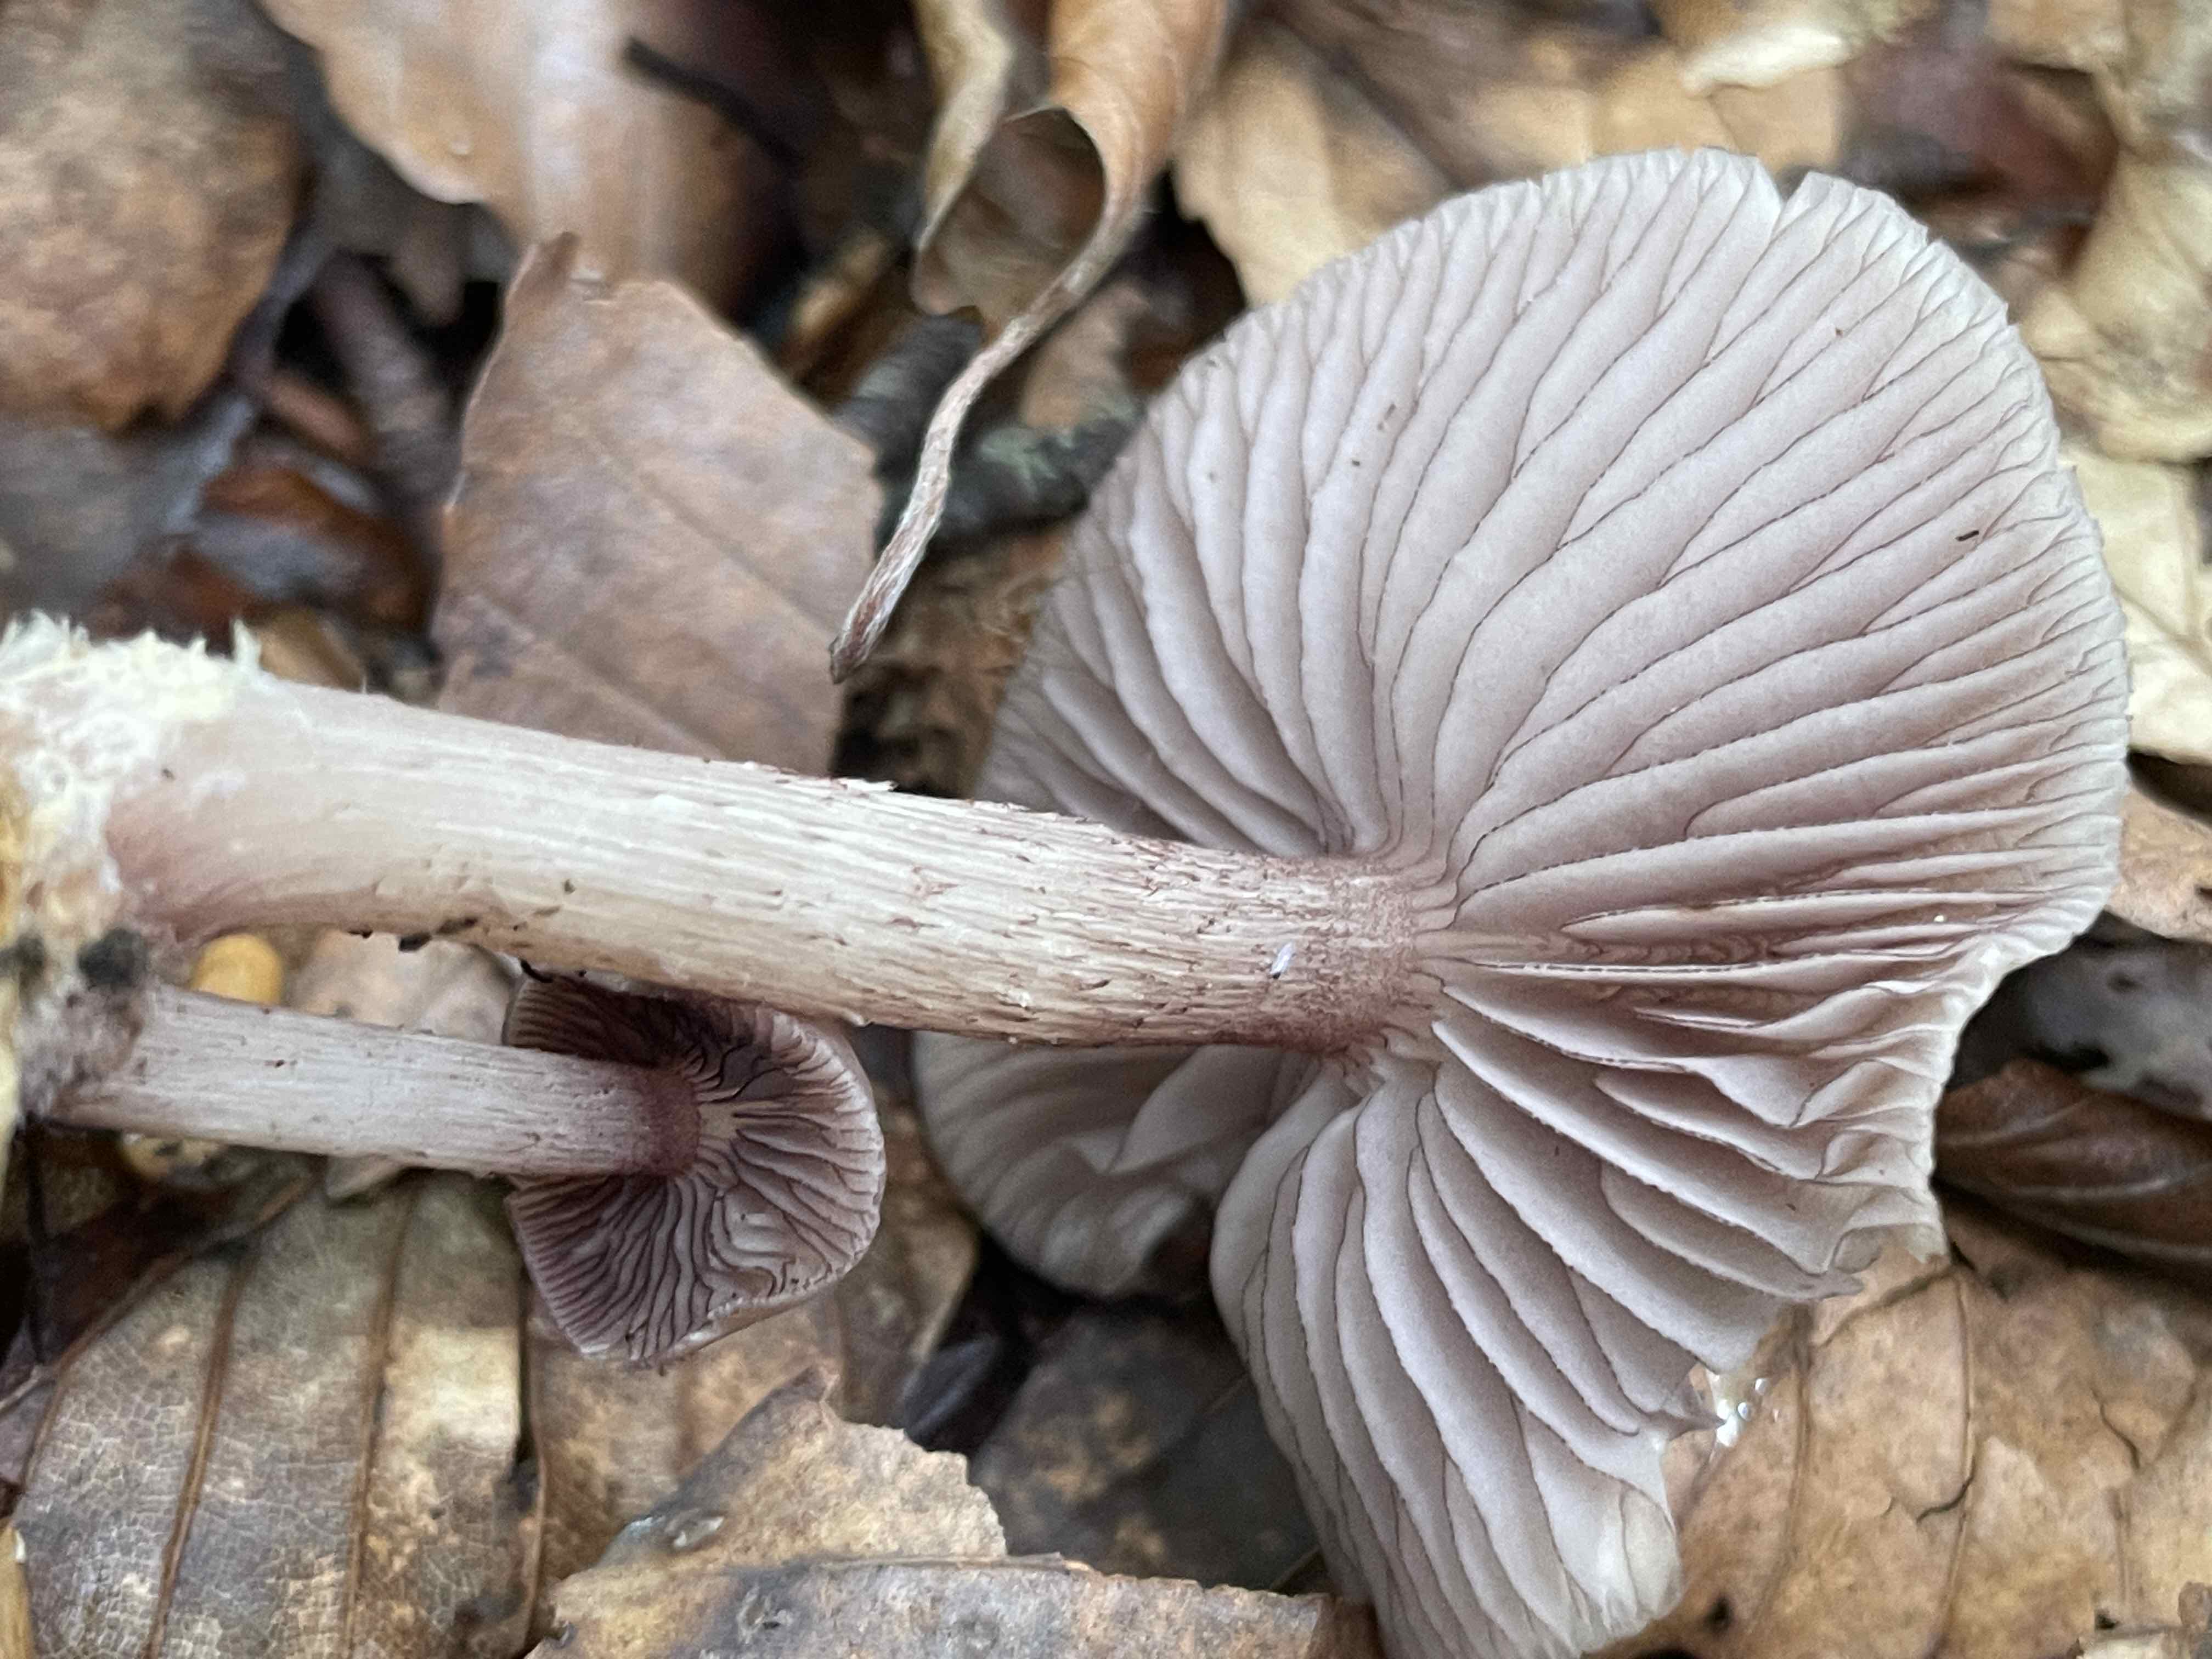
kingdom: Fungi
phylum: Basidiomycota
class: Agaricomycetes
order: Agaricales
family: Mycenaceae
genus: Mycena
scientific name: Mycena pelianthina
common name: mørkbladet huesvamp
